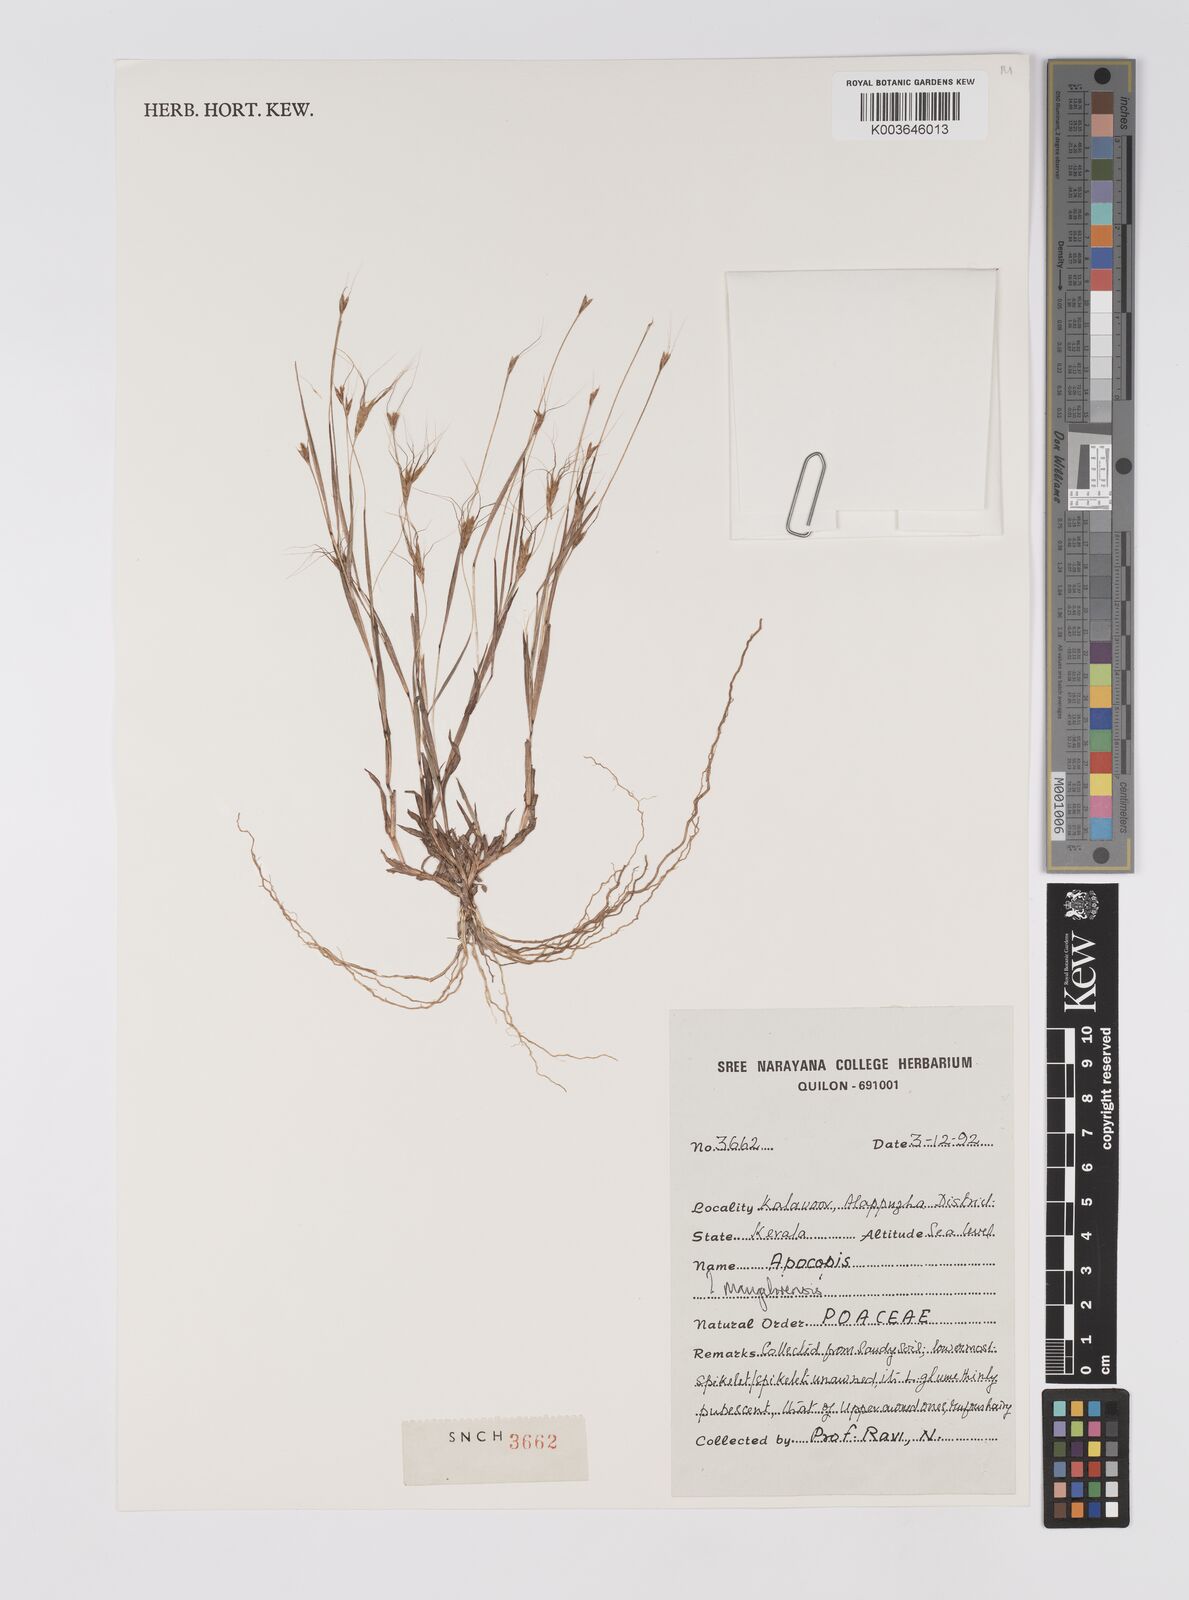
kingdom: Plantae
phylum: Tracheophyta
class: Liliopsida
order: Poales
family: Poaceae
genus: Apocopis
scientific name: Apocopis mangalorensis
